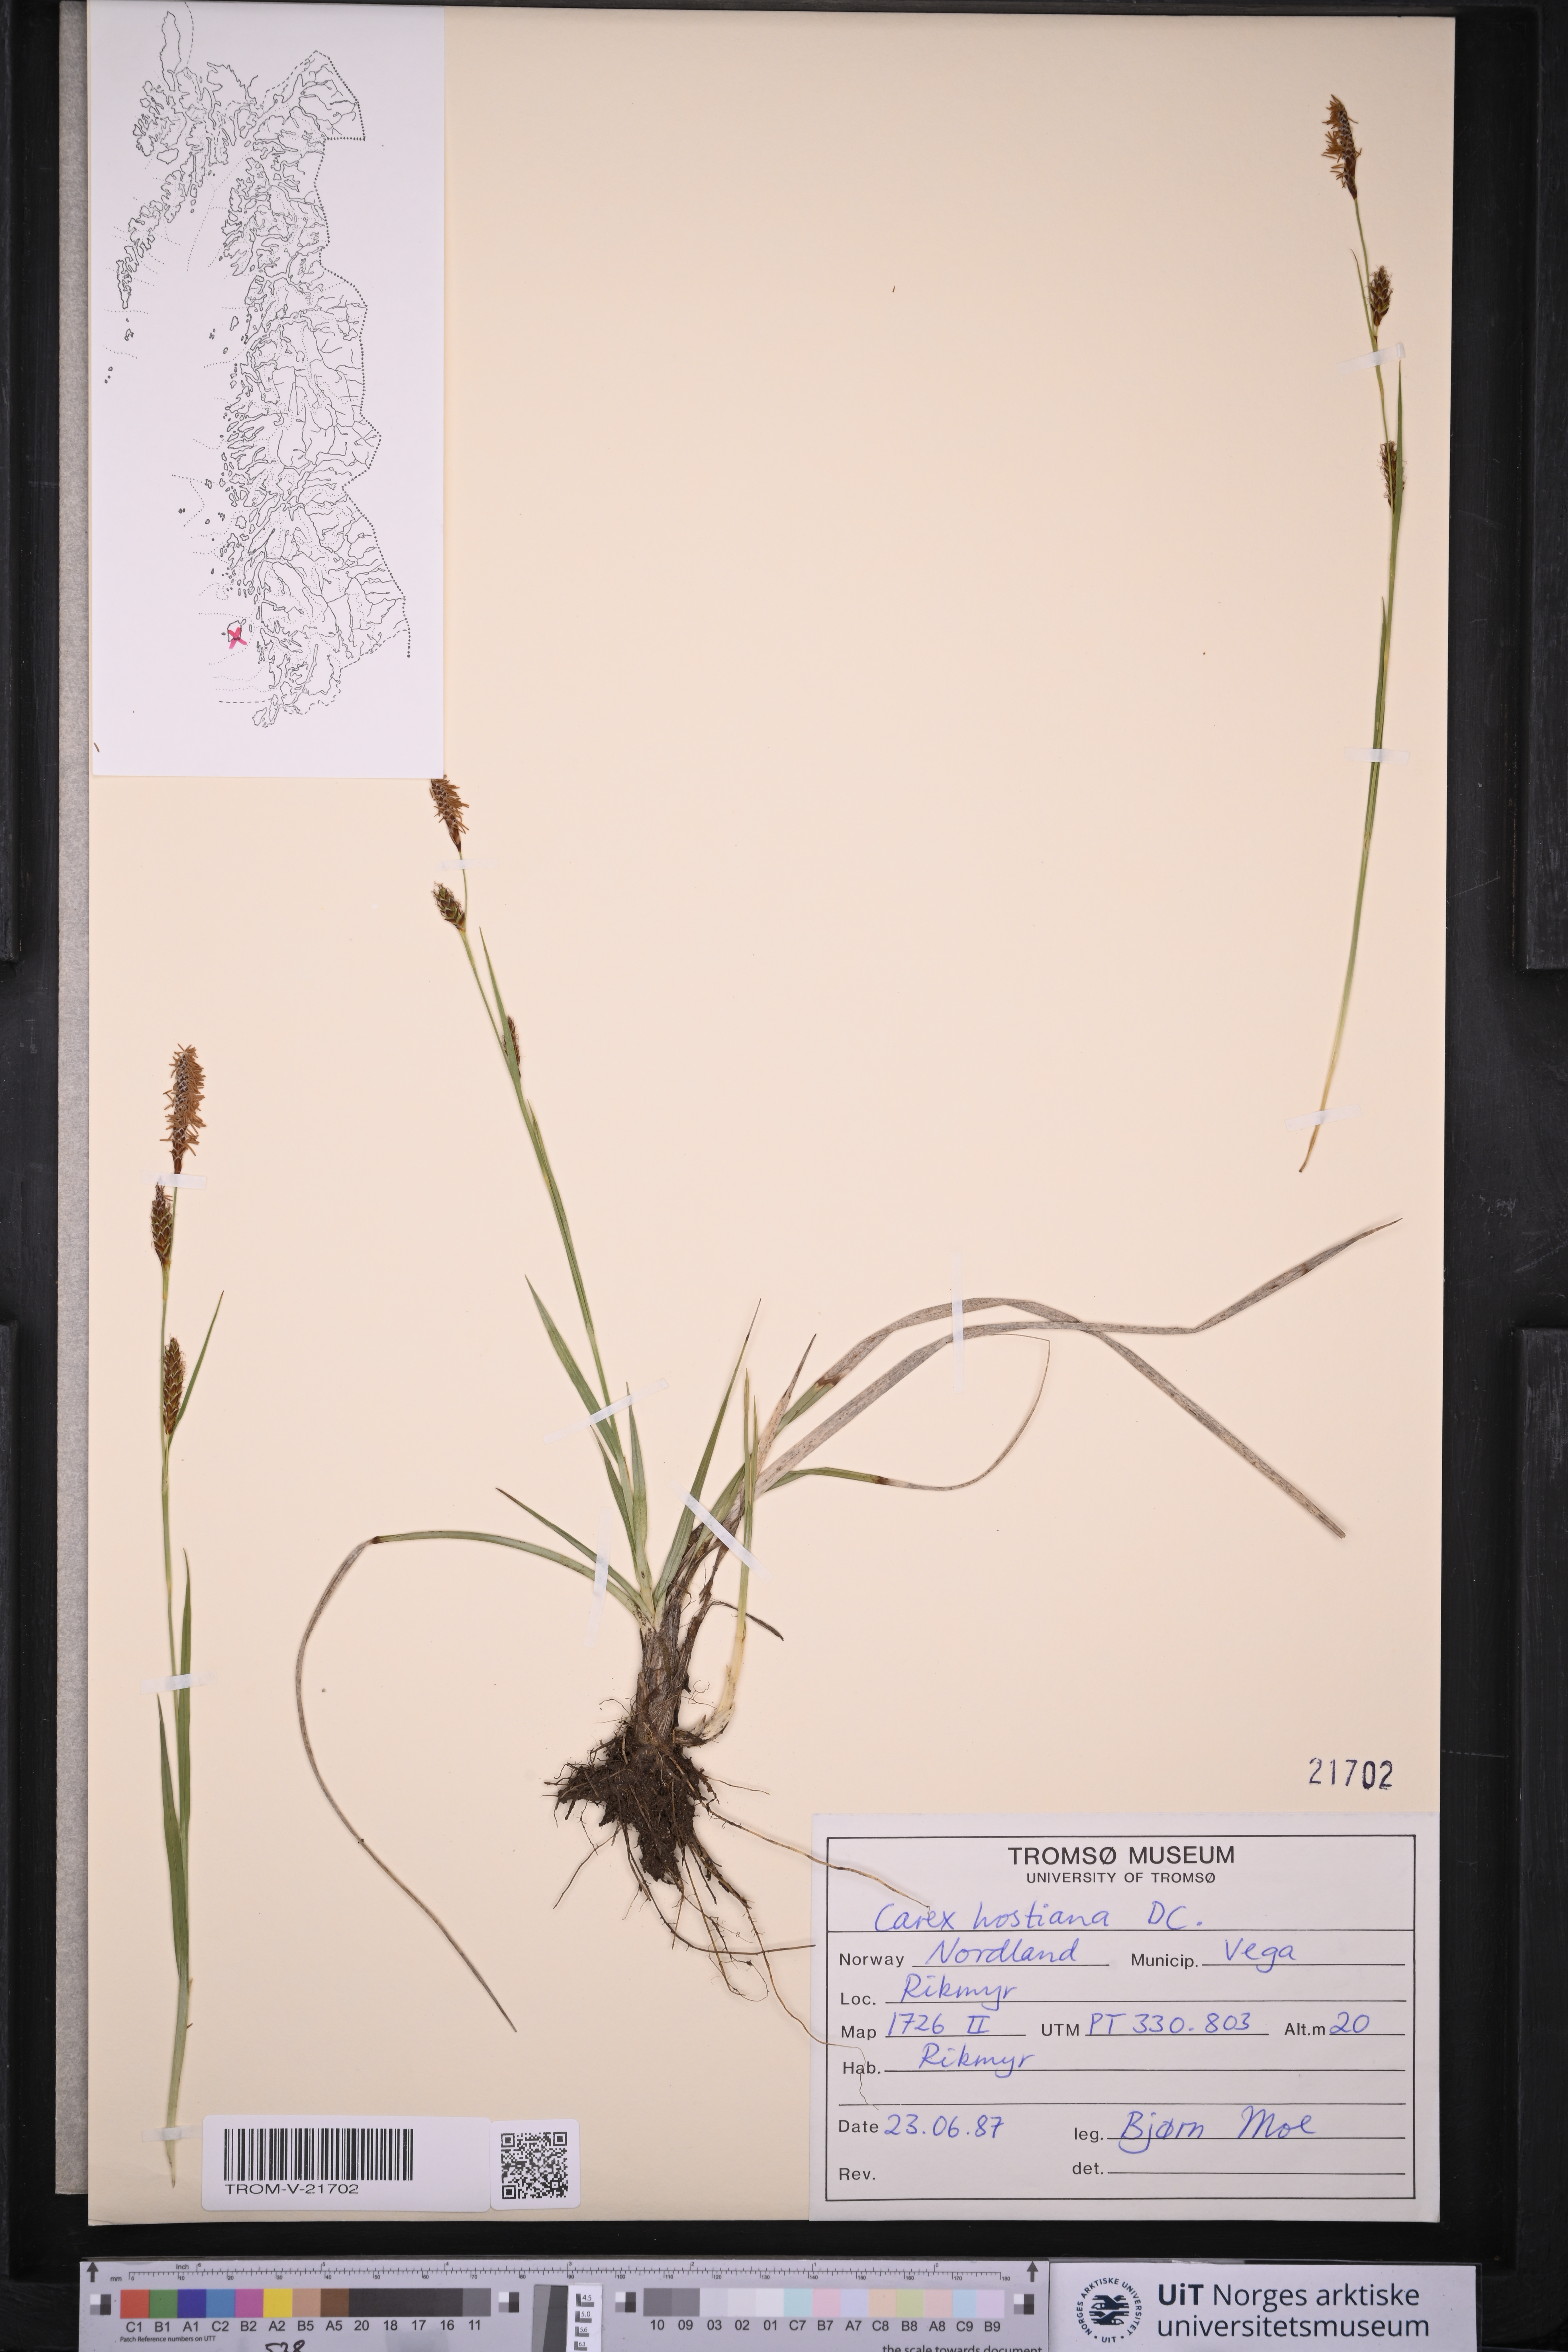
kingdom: Plantae
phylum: Tracheophyta
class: Liliopsida
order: Poales
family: Cyperaceae
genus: Carex
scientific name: Carex hostiana
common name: Tawny sedge
